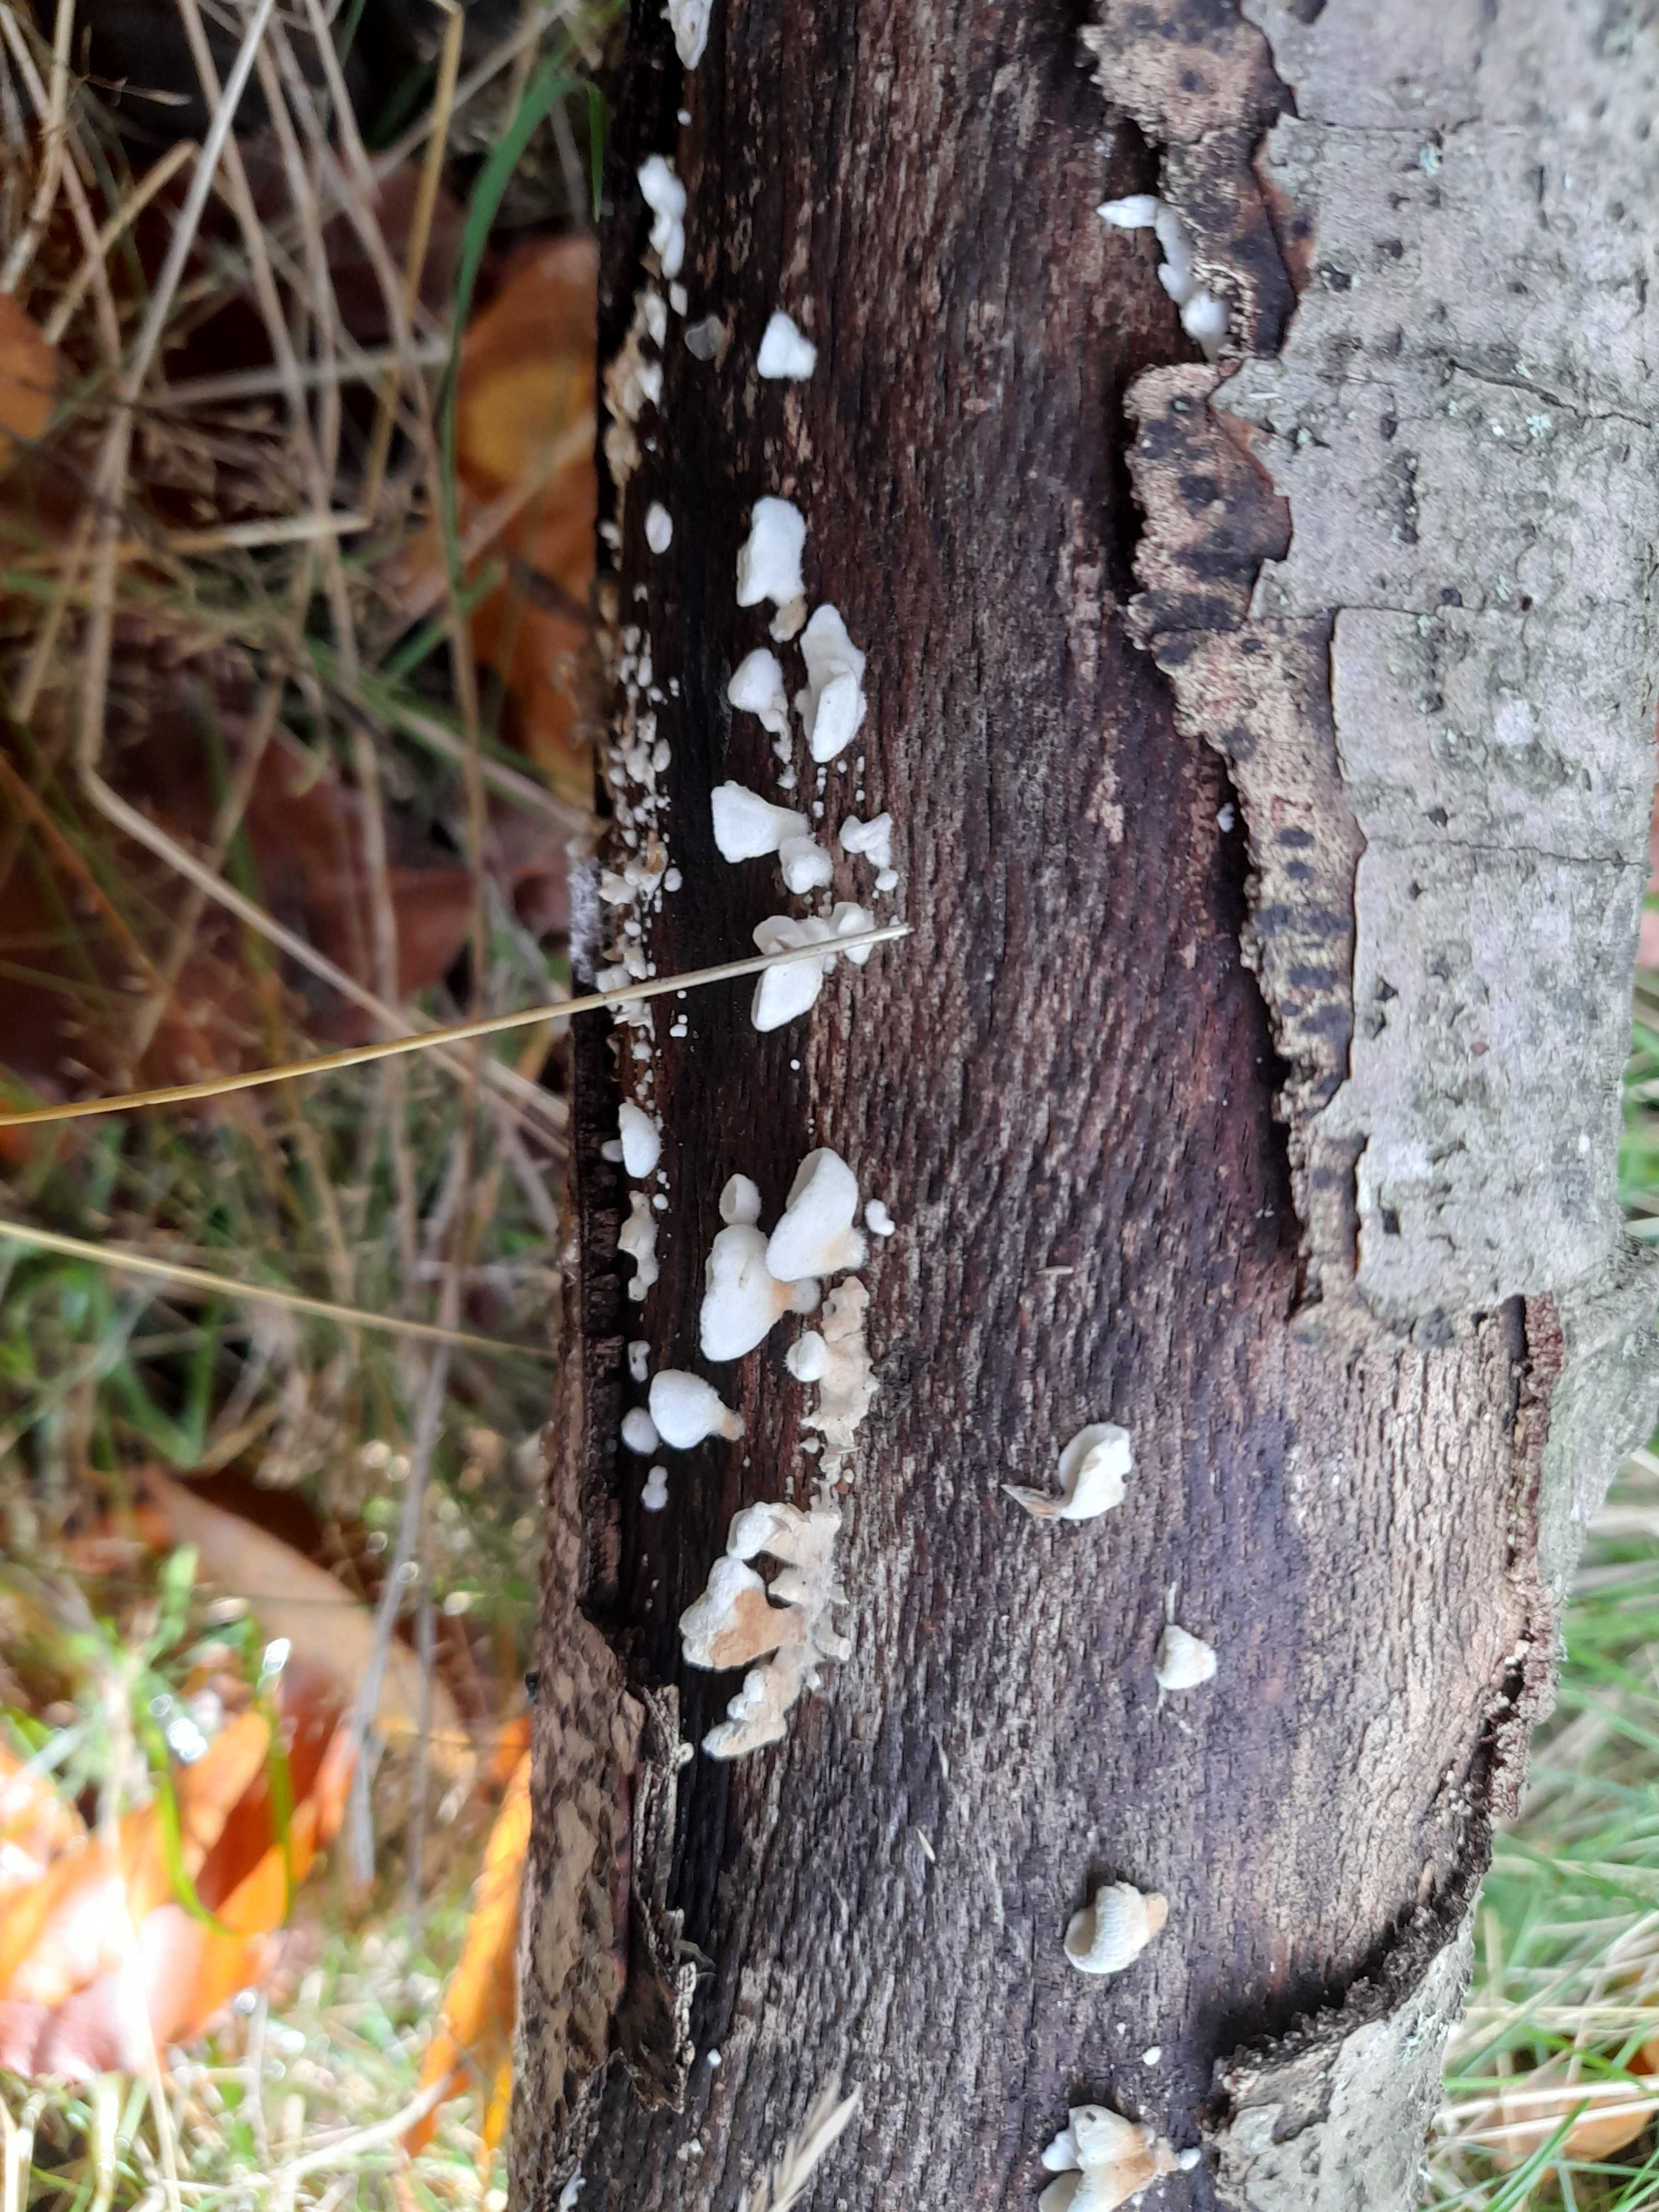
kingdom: Fungi
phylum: Basidiomycota
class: Agaricomycetes
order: Amylocorticiales
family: Amylocorticiaceae
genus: Plicaturopsis
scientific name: Plicaturopsis crispa
